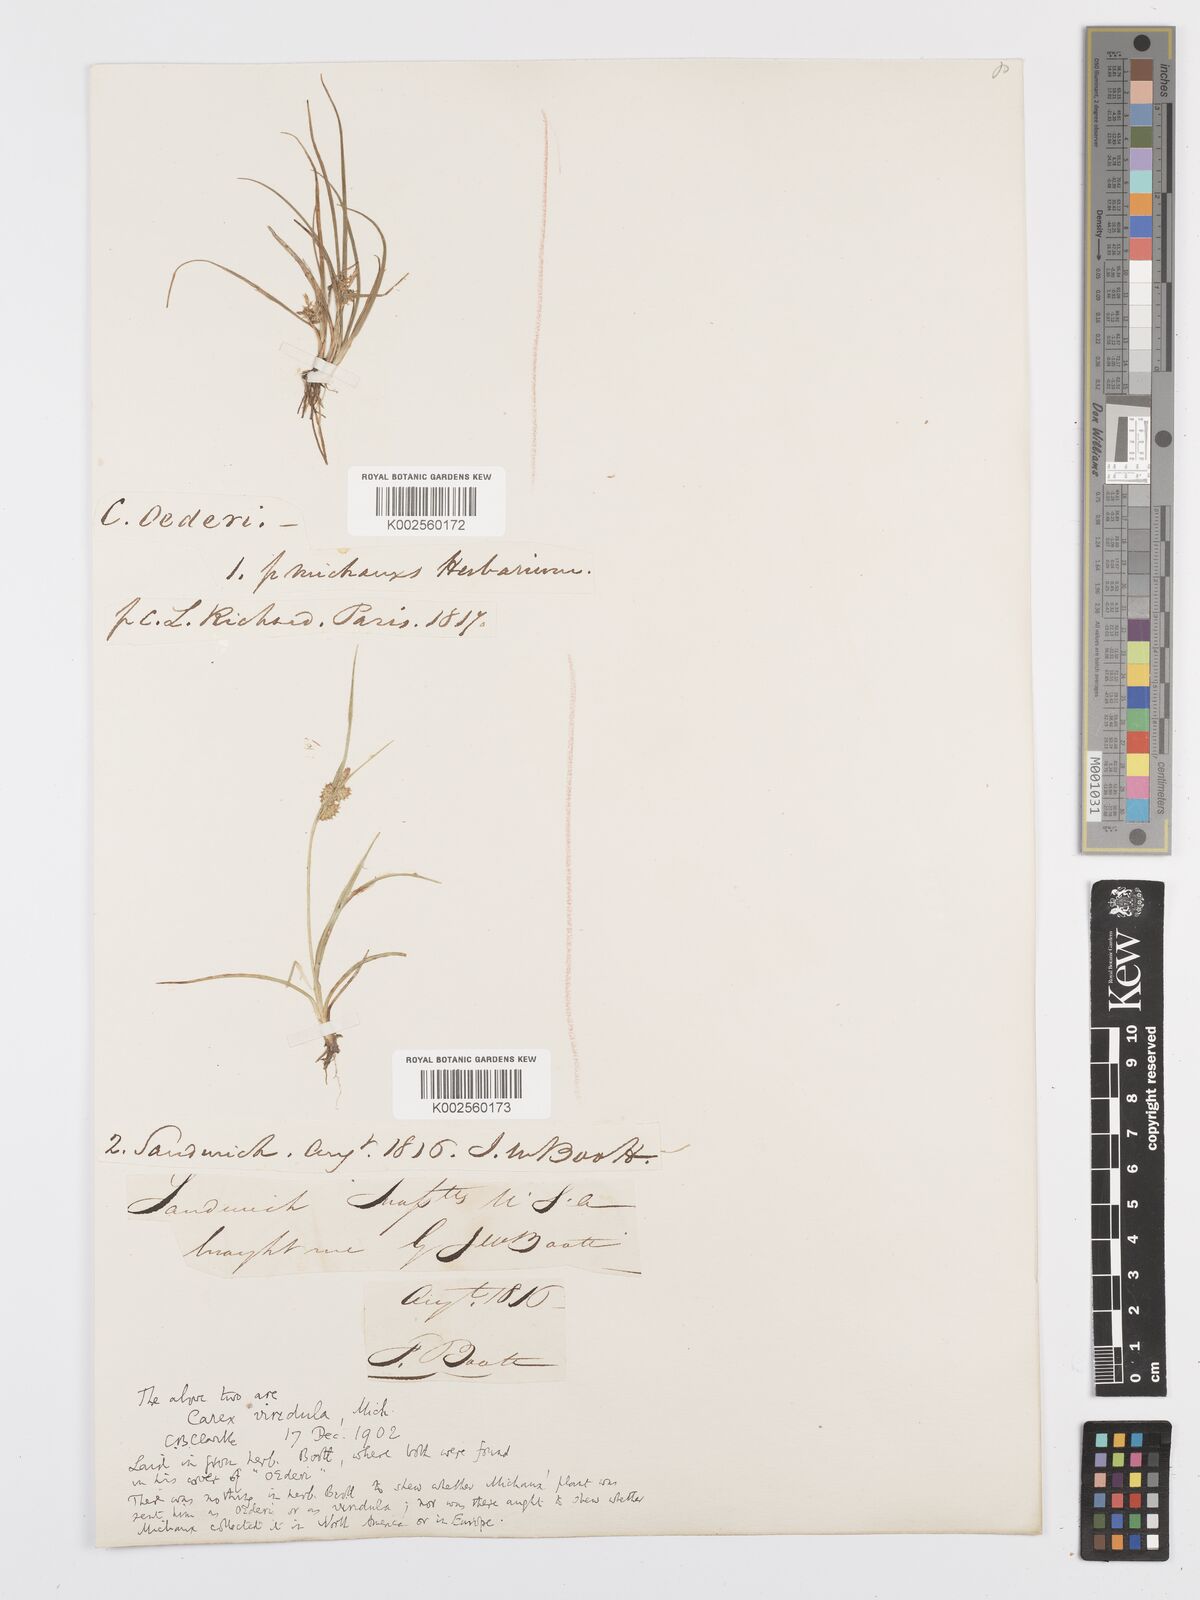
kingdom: Plantae
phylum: Tracheophyta
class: Liliopsida
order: Poales
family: Cyperaceae
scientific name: Cyperaceae
